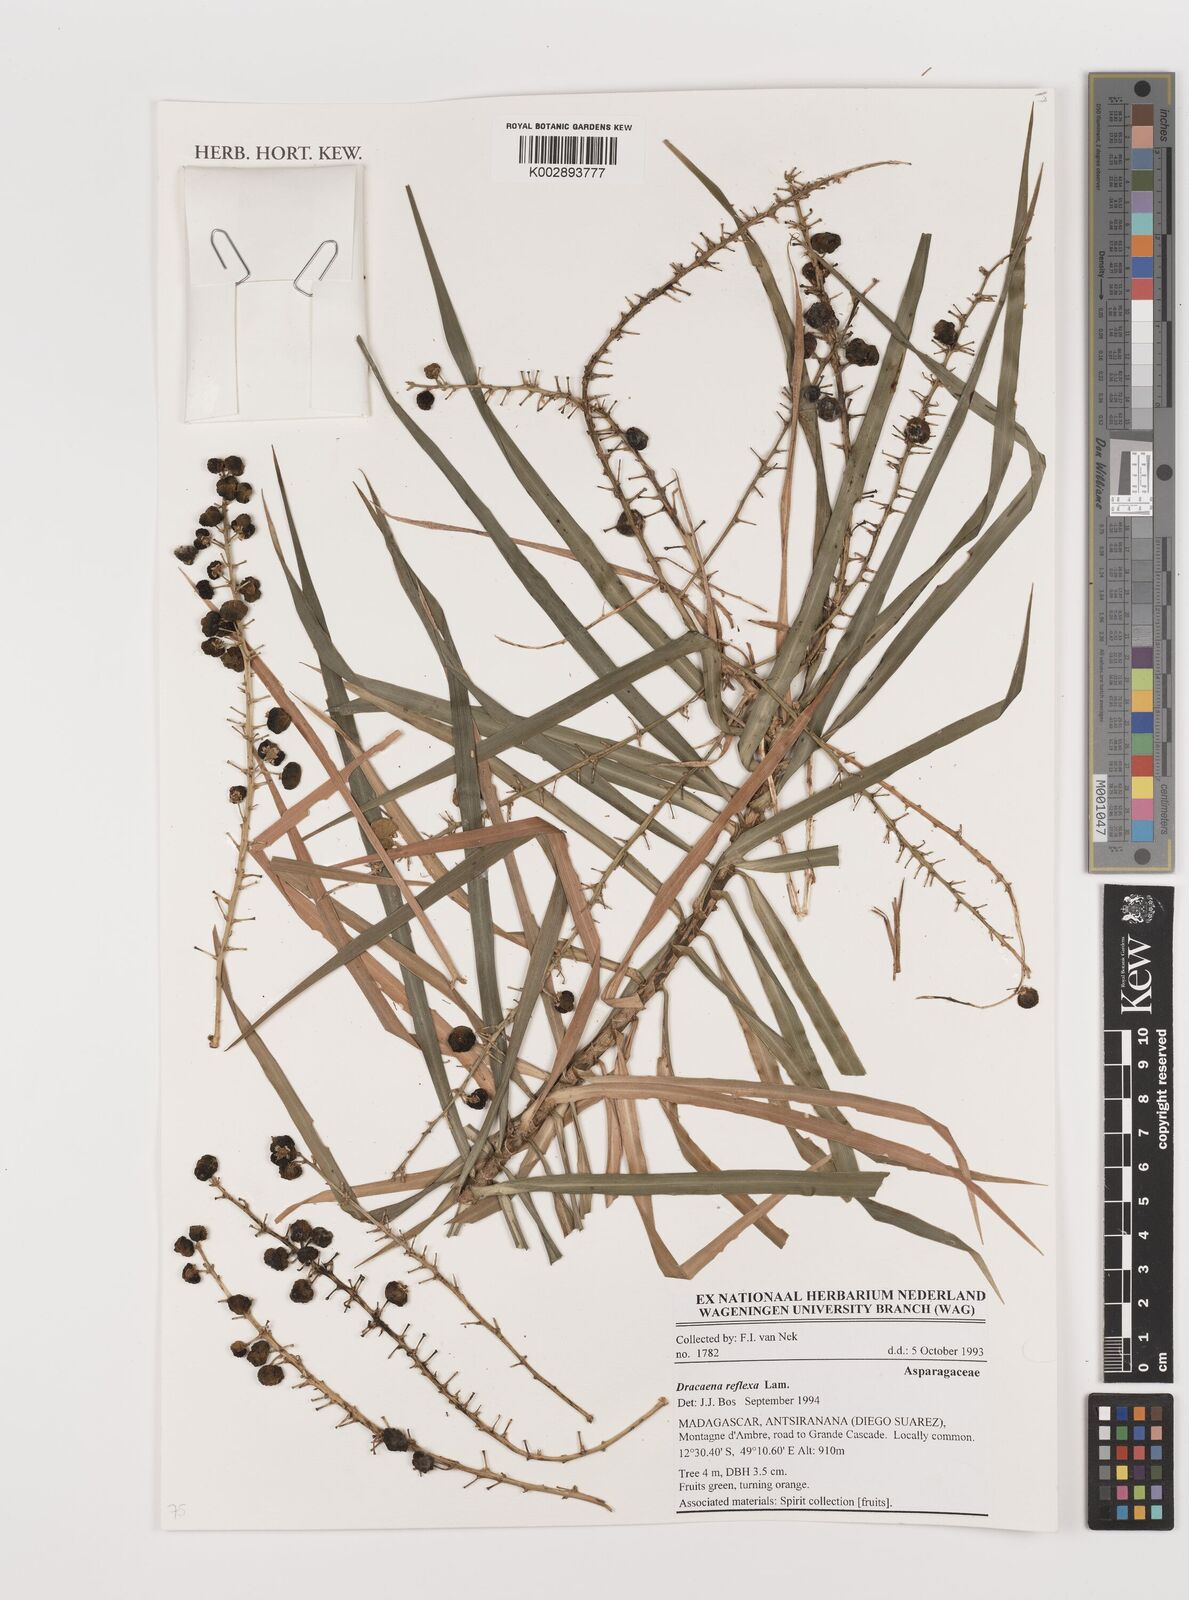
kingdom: Plantae
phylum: Tracheophyta
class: Liliopsida
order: Asparagales
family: Asparagaceae
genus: Dracaena
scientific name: Dracaena reflexa
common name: Song-of-india
